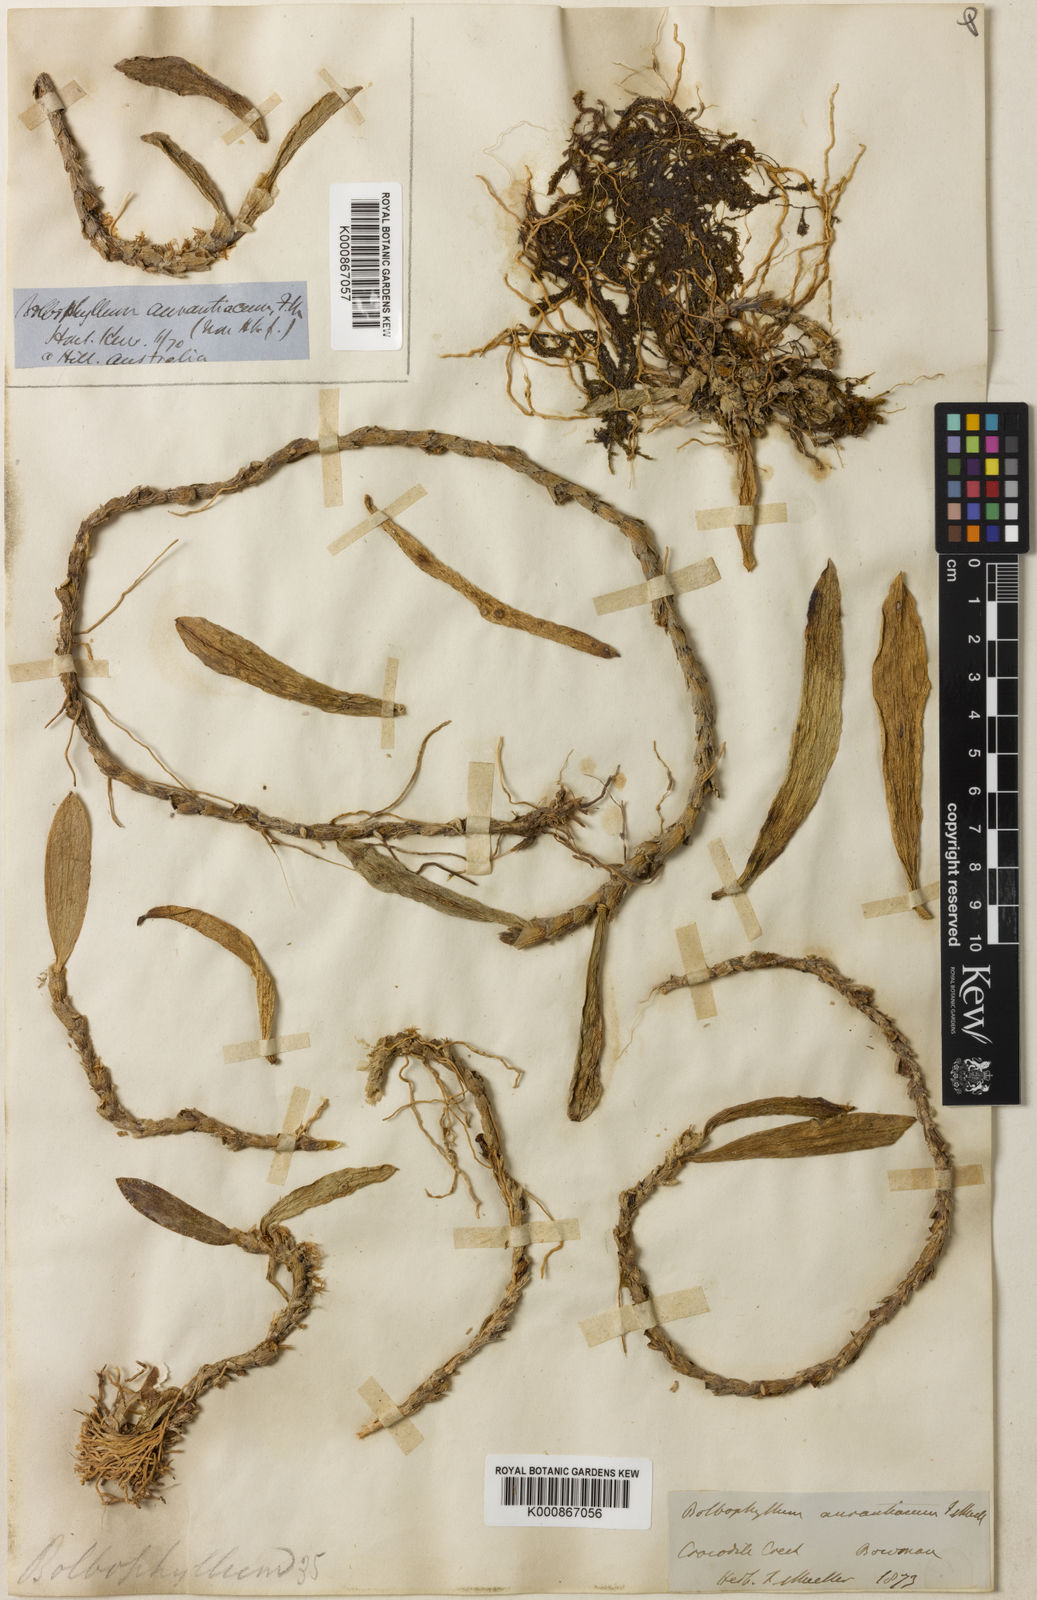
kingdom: Plantae
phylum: Tracheophyta
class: Liliopsida
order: Asparagales
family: Orchidaceae
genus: Bulbophyllum
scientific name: Bulbophyllum schillerianum
